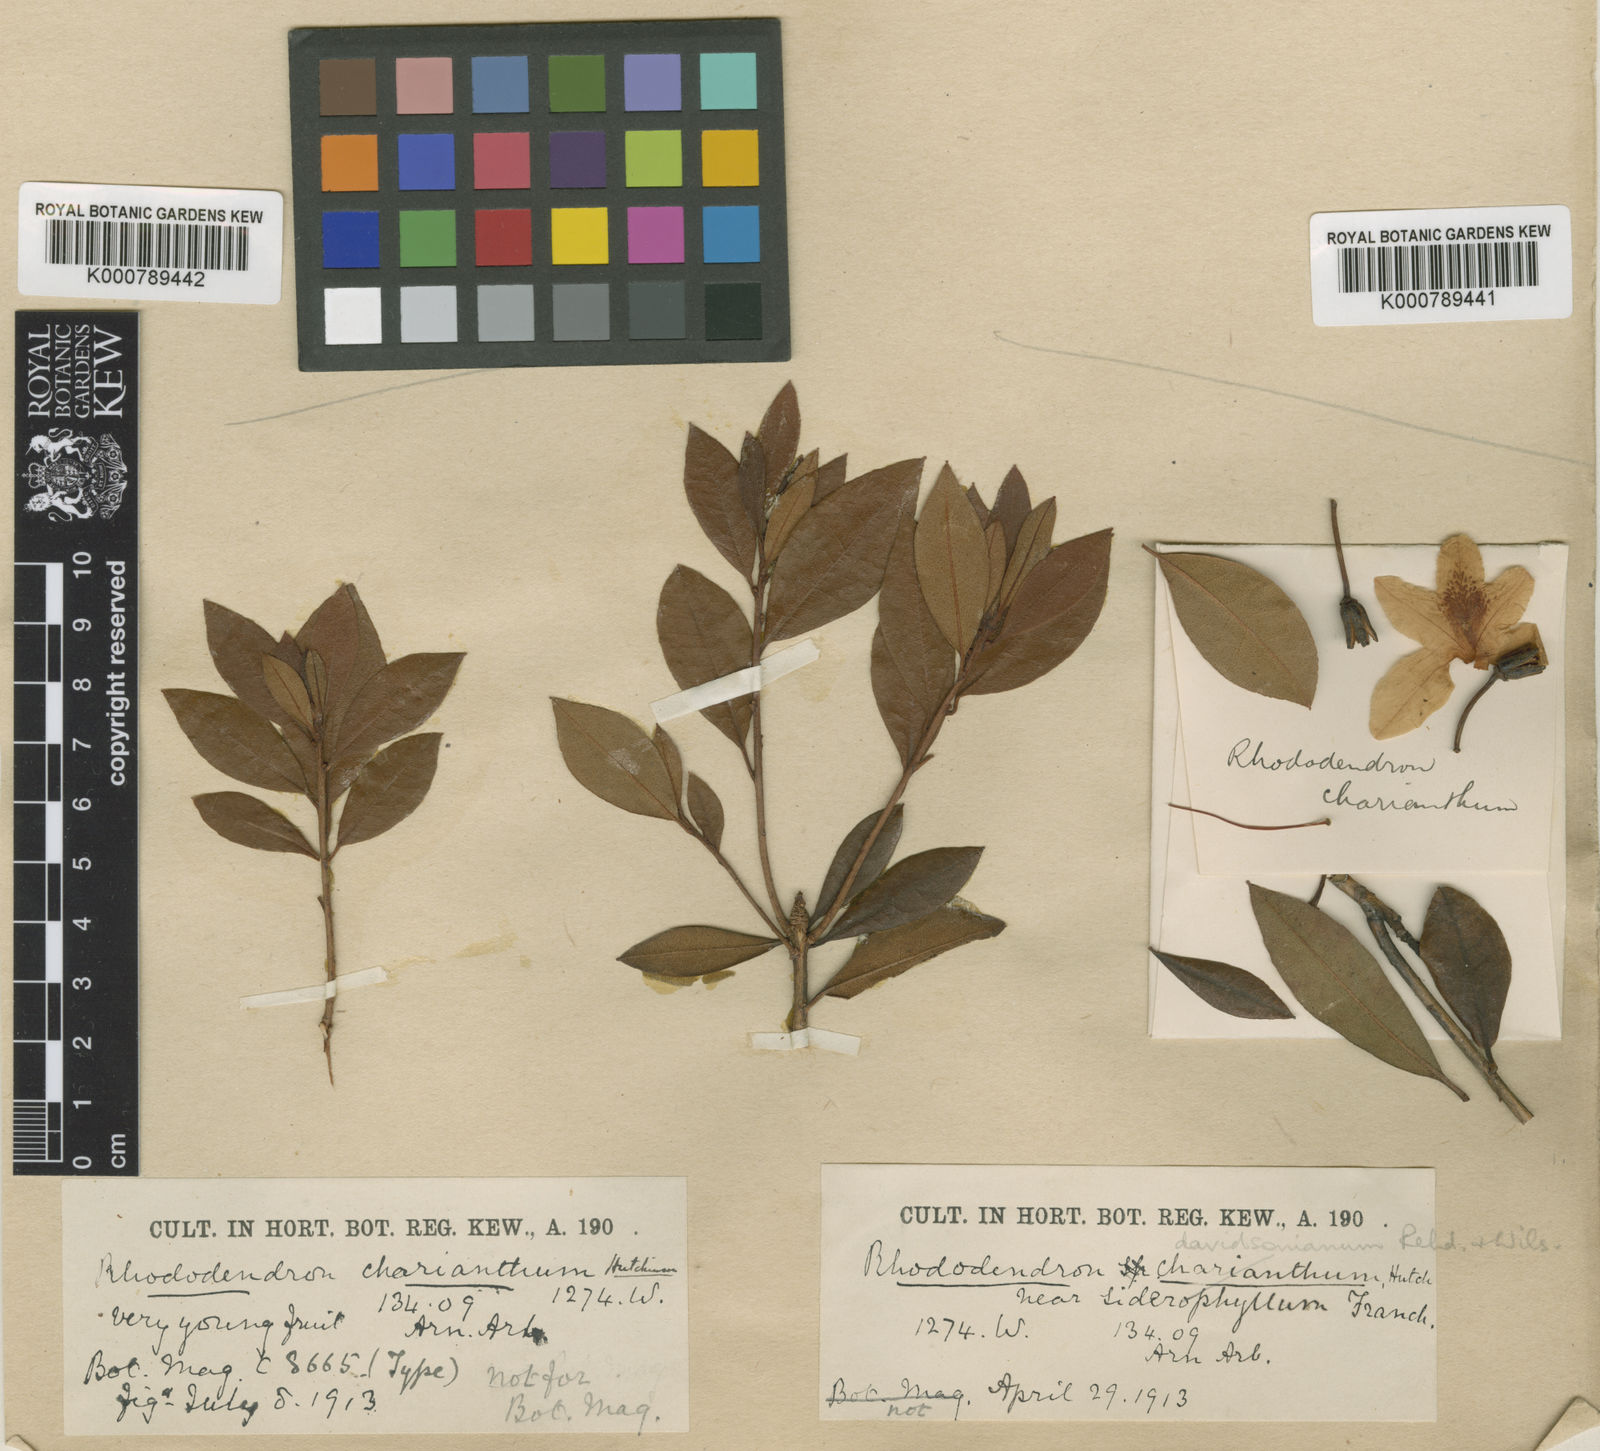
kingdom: Plantae
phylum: Tracheophyta
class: Magnoliopsida
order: Ericales
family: Ericaceae
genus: Rhododendron
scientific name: Rhododendron
